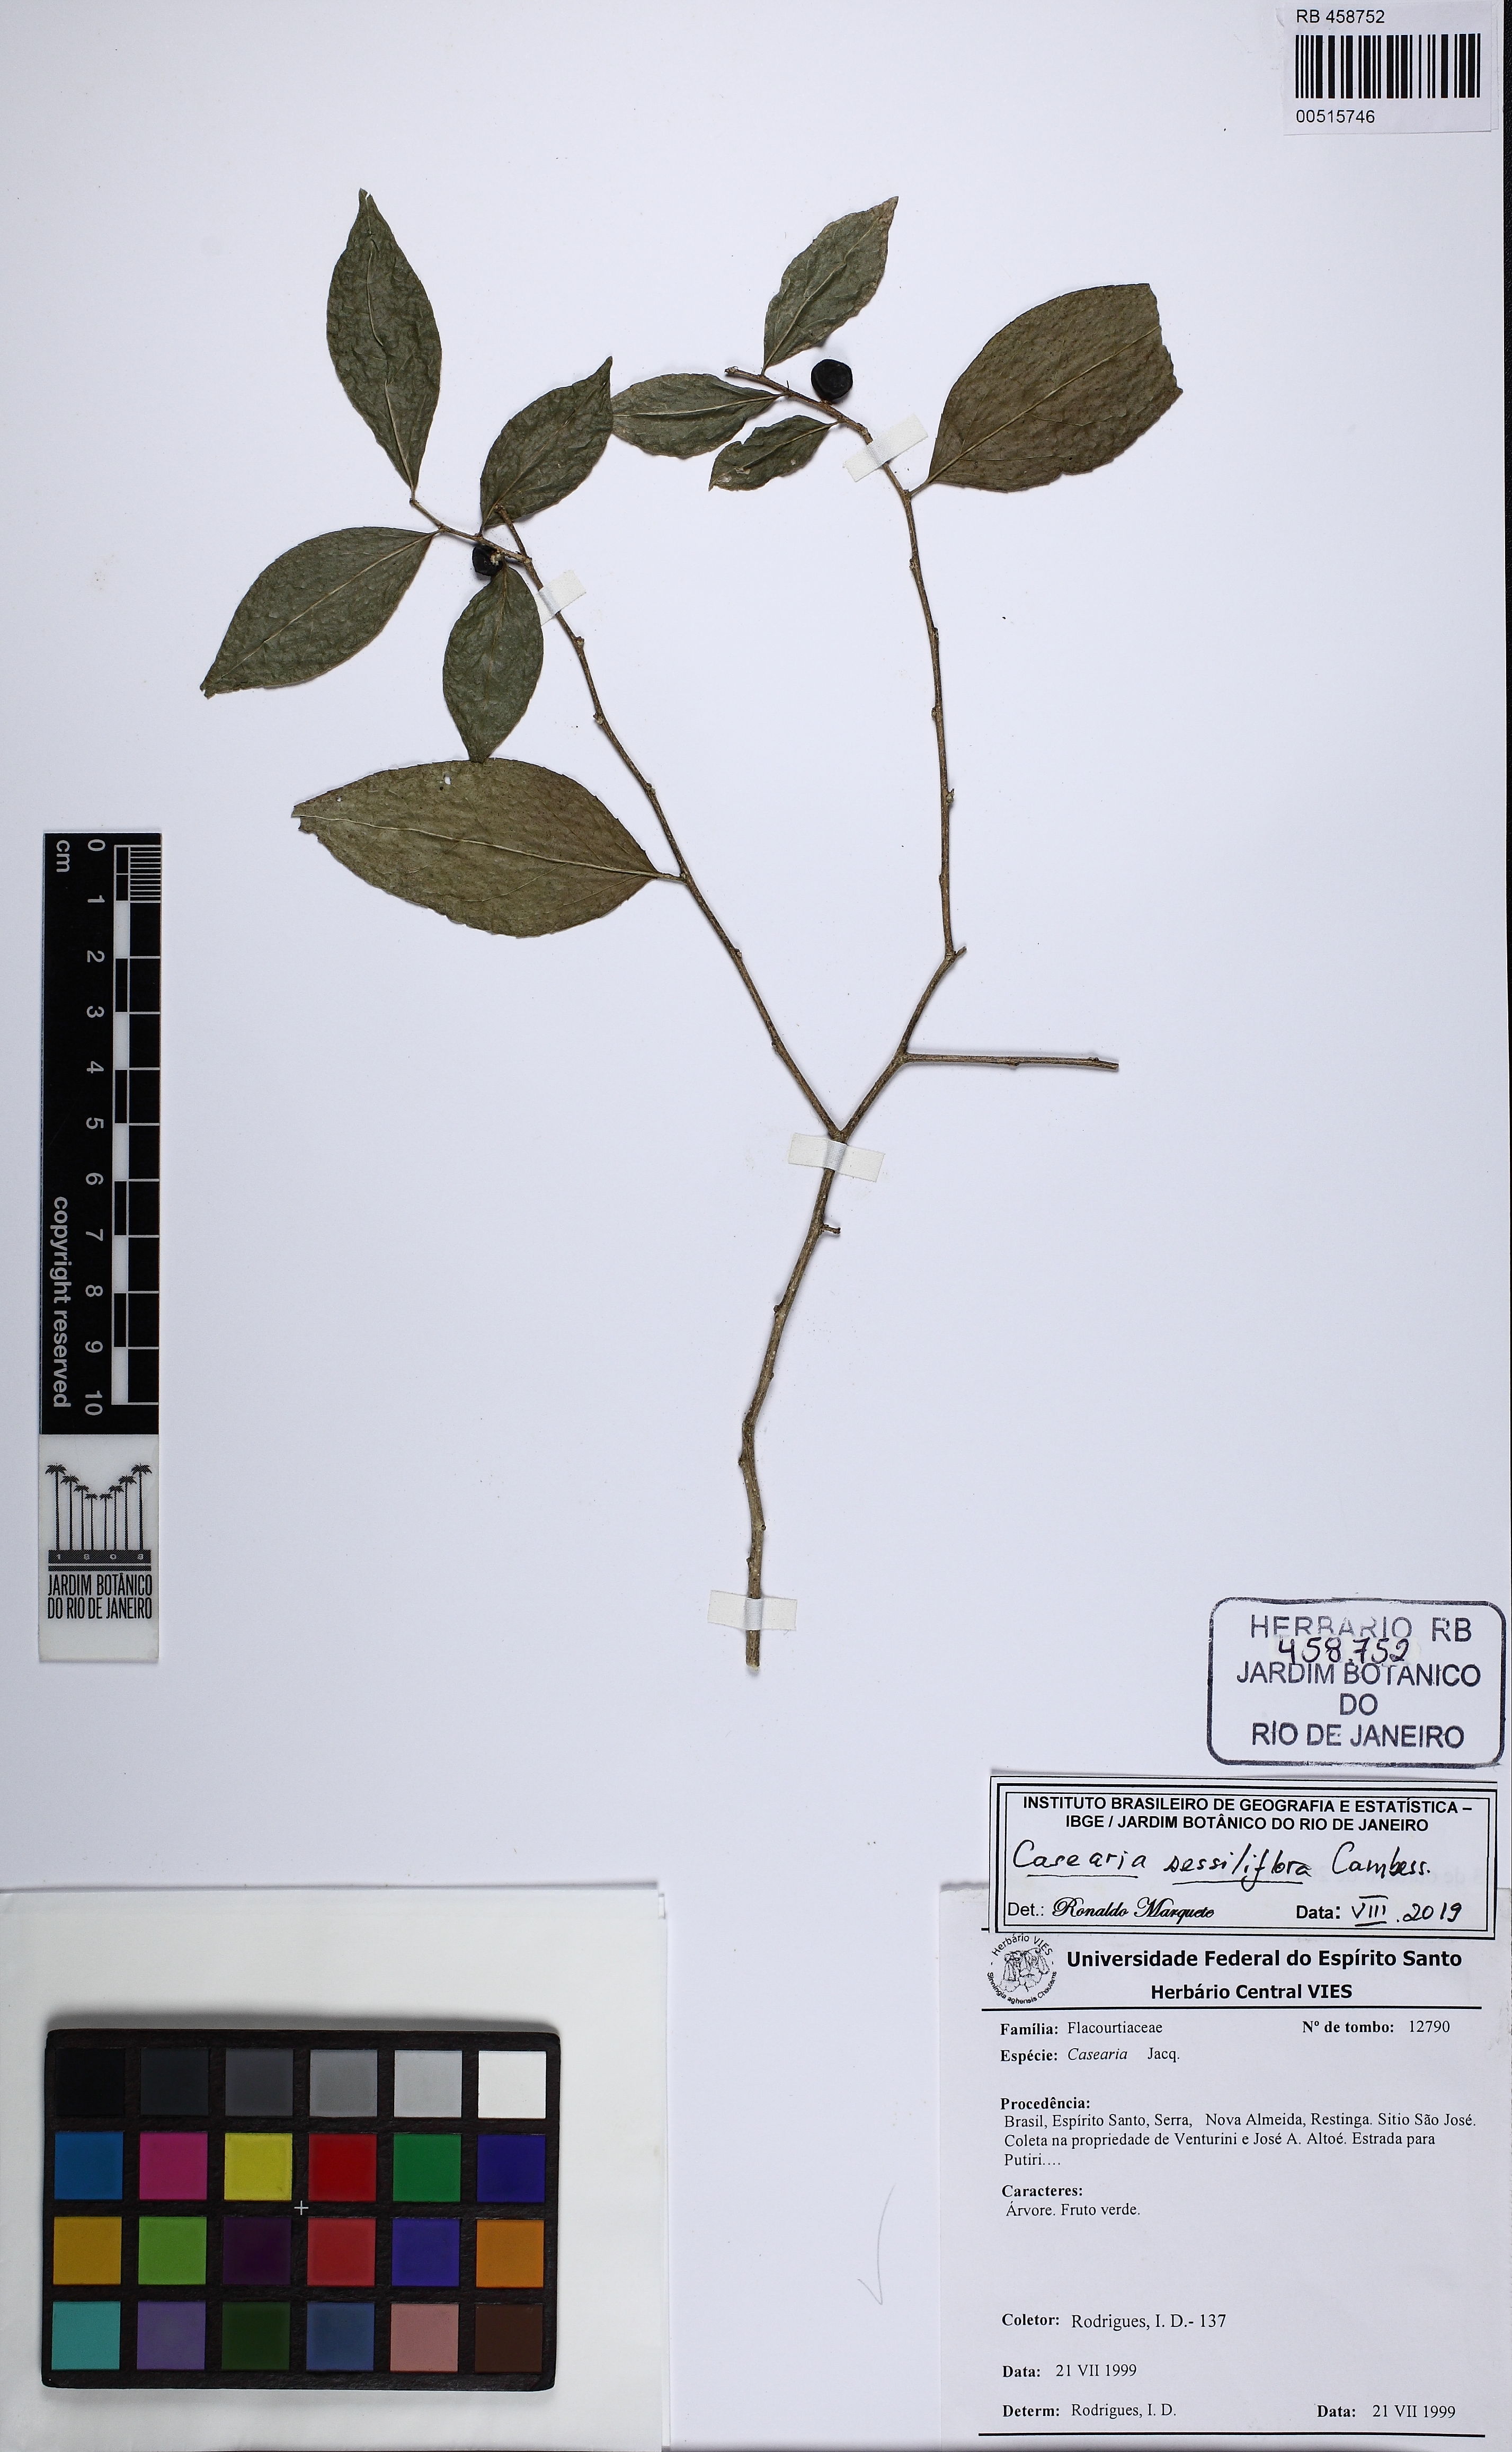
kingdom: Plantae
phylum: Tracheophyta
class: Magnoliopsida
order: Malpighiales
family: Salicaceae
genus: Casearia
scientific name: Casearia sessiliflora
